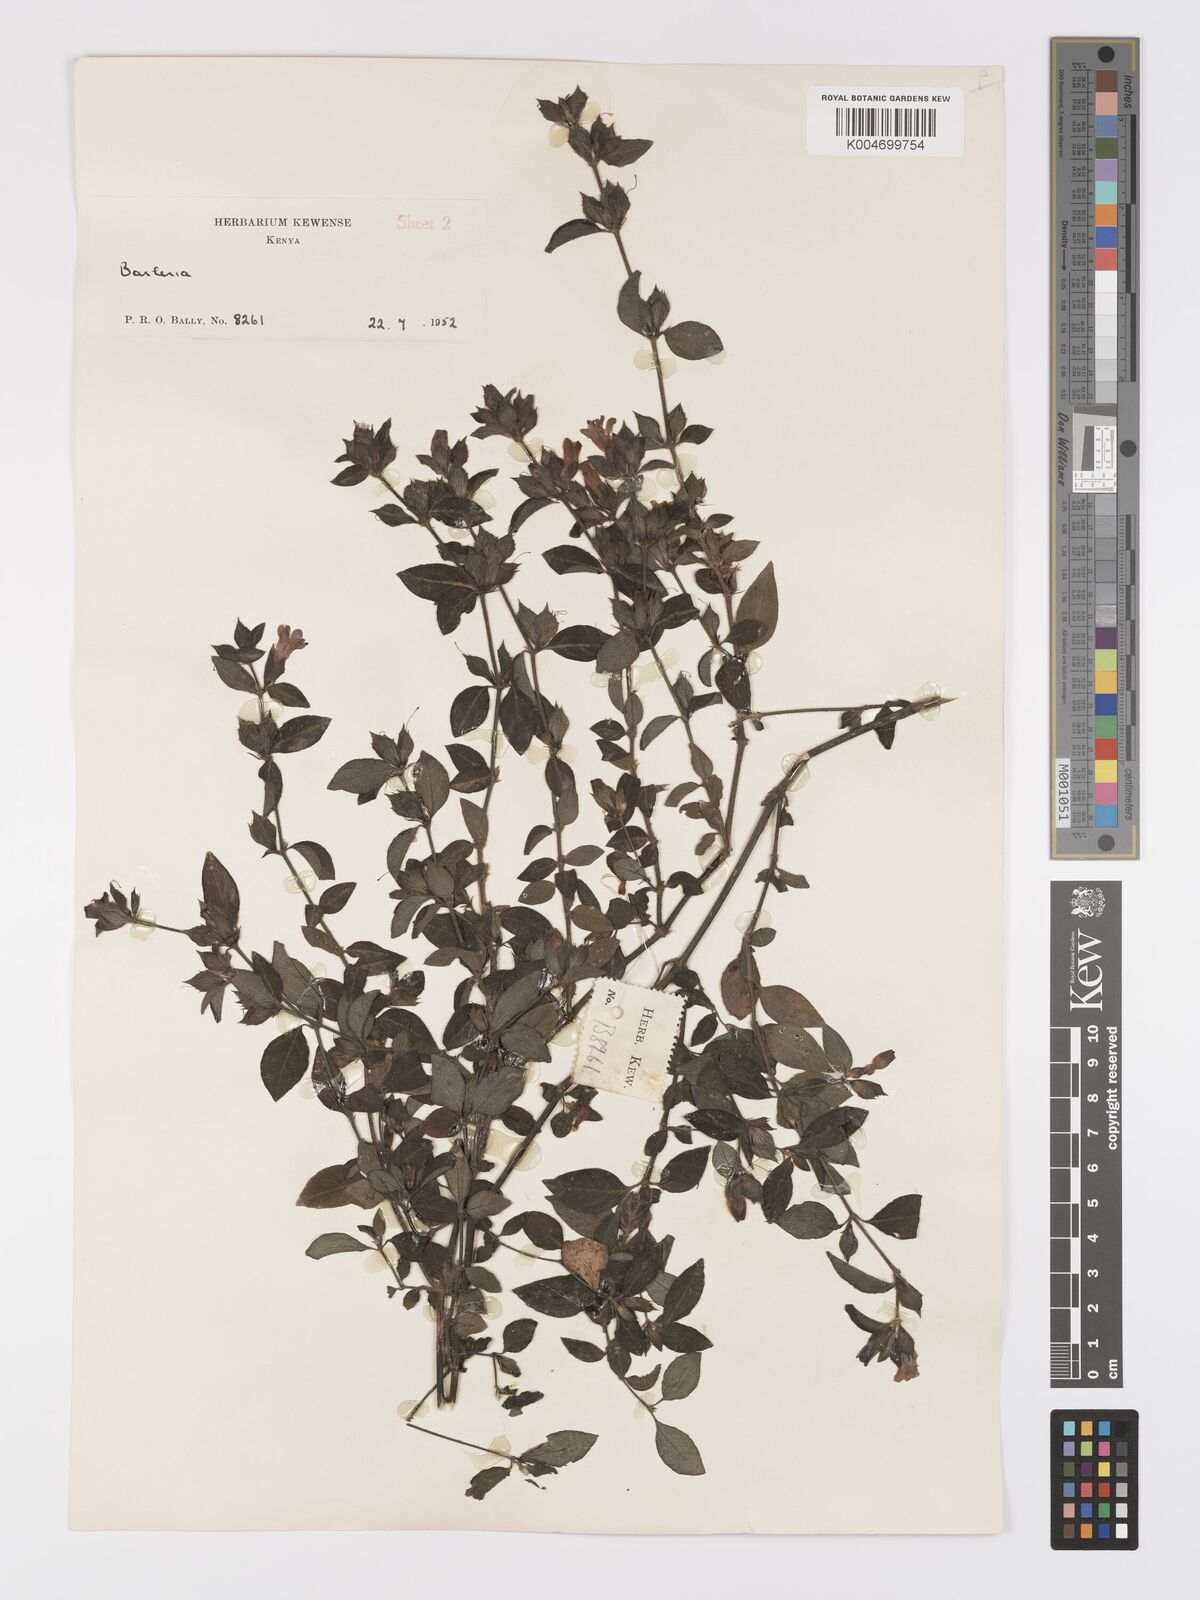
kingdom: Plantae
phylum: Tracheophyta
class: Magnoliopsida
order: Lamiales
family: Acanthaceae
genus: Barleria
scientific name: Barleria ventricosa
